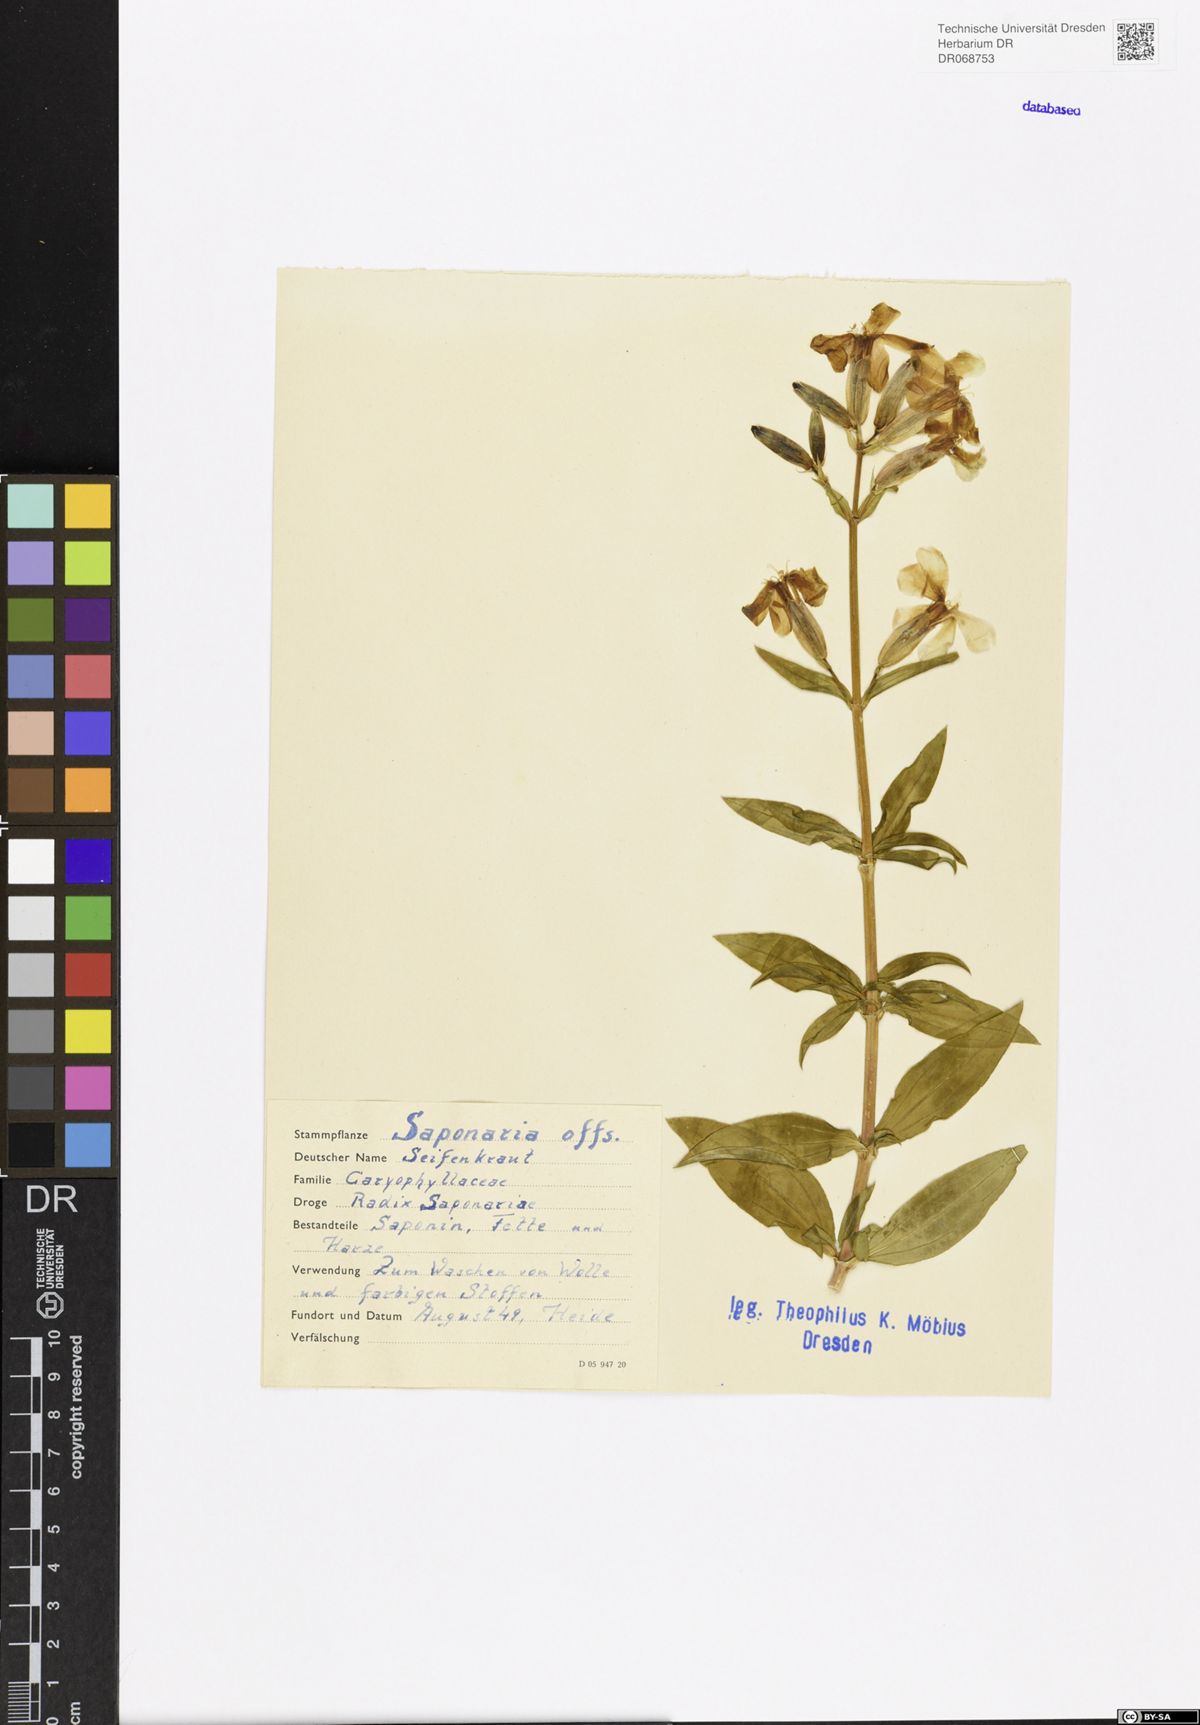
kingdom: Plantae
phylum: Tracheophyta
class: Magnoliopsida
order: Caryophyllales
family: Caryophyllaceae
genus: Saponaria
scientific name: Saponaria officinalis
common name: Soapwort
